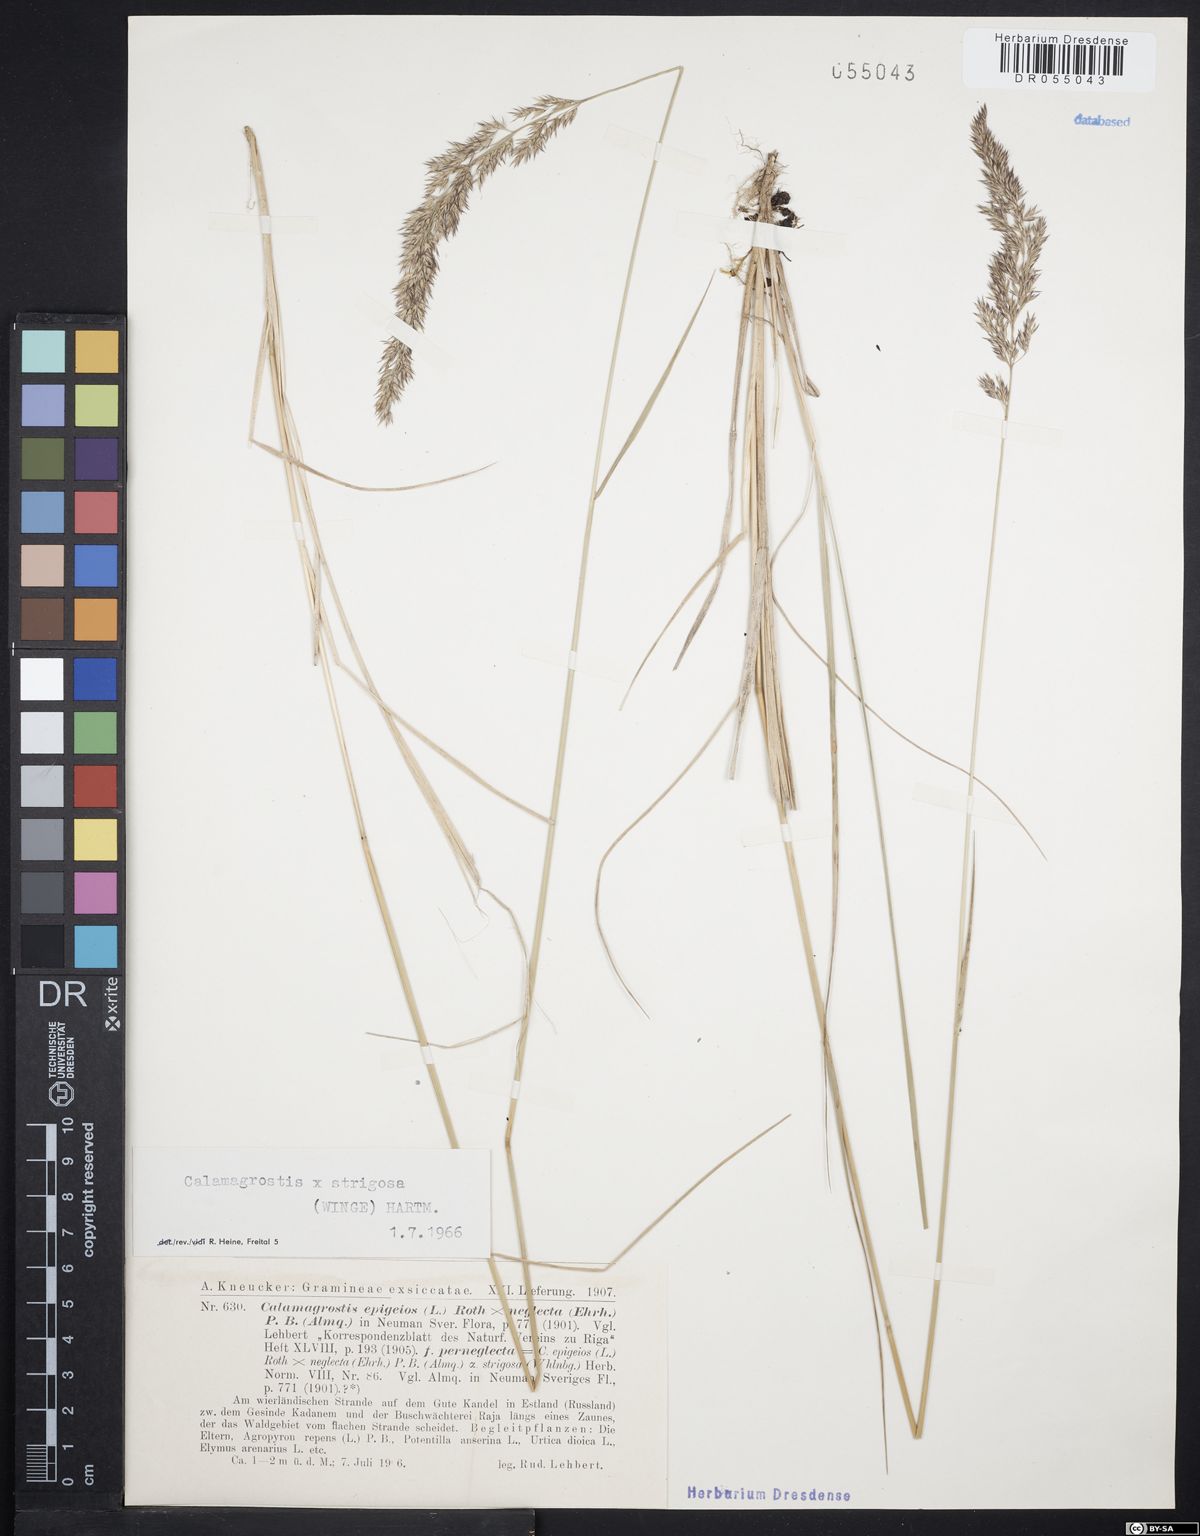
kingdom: Plantae
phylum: Tracheophyta
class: Liliopsida
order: Poales
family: Poaceae
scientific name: Poaceae
